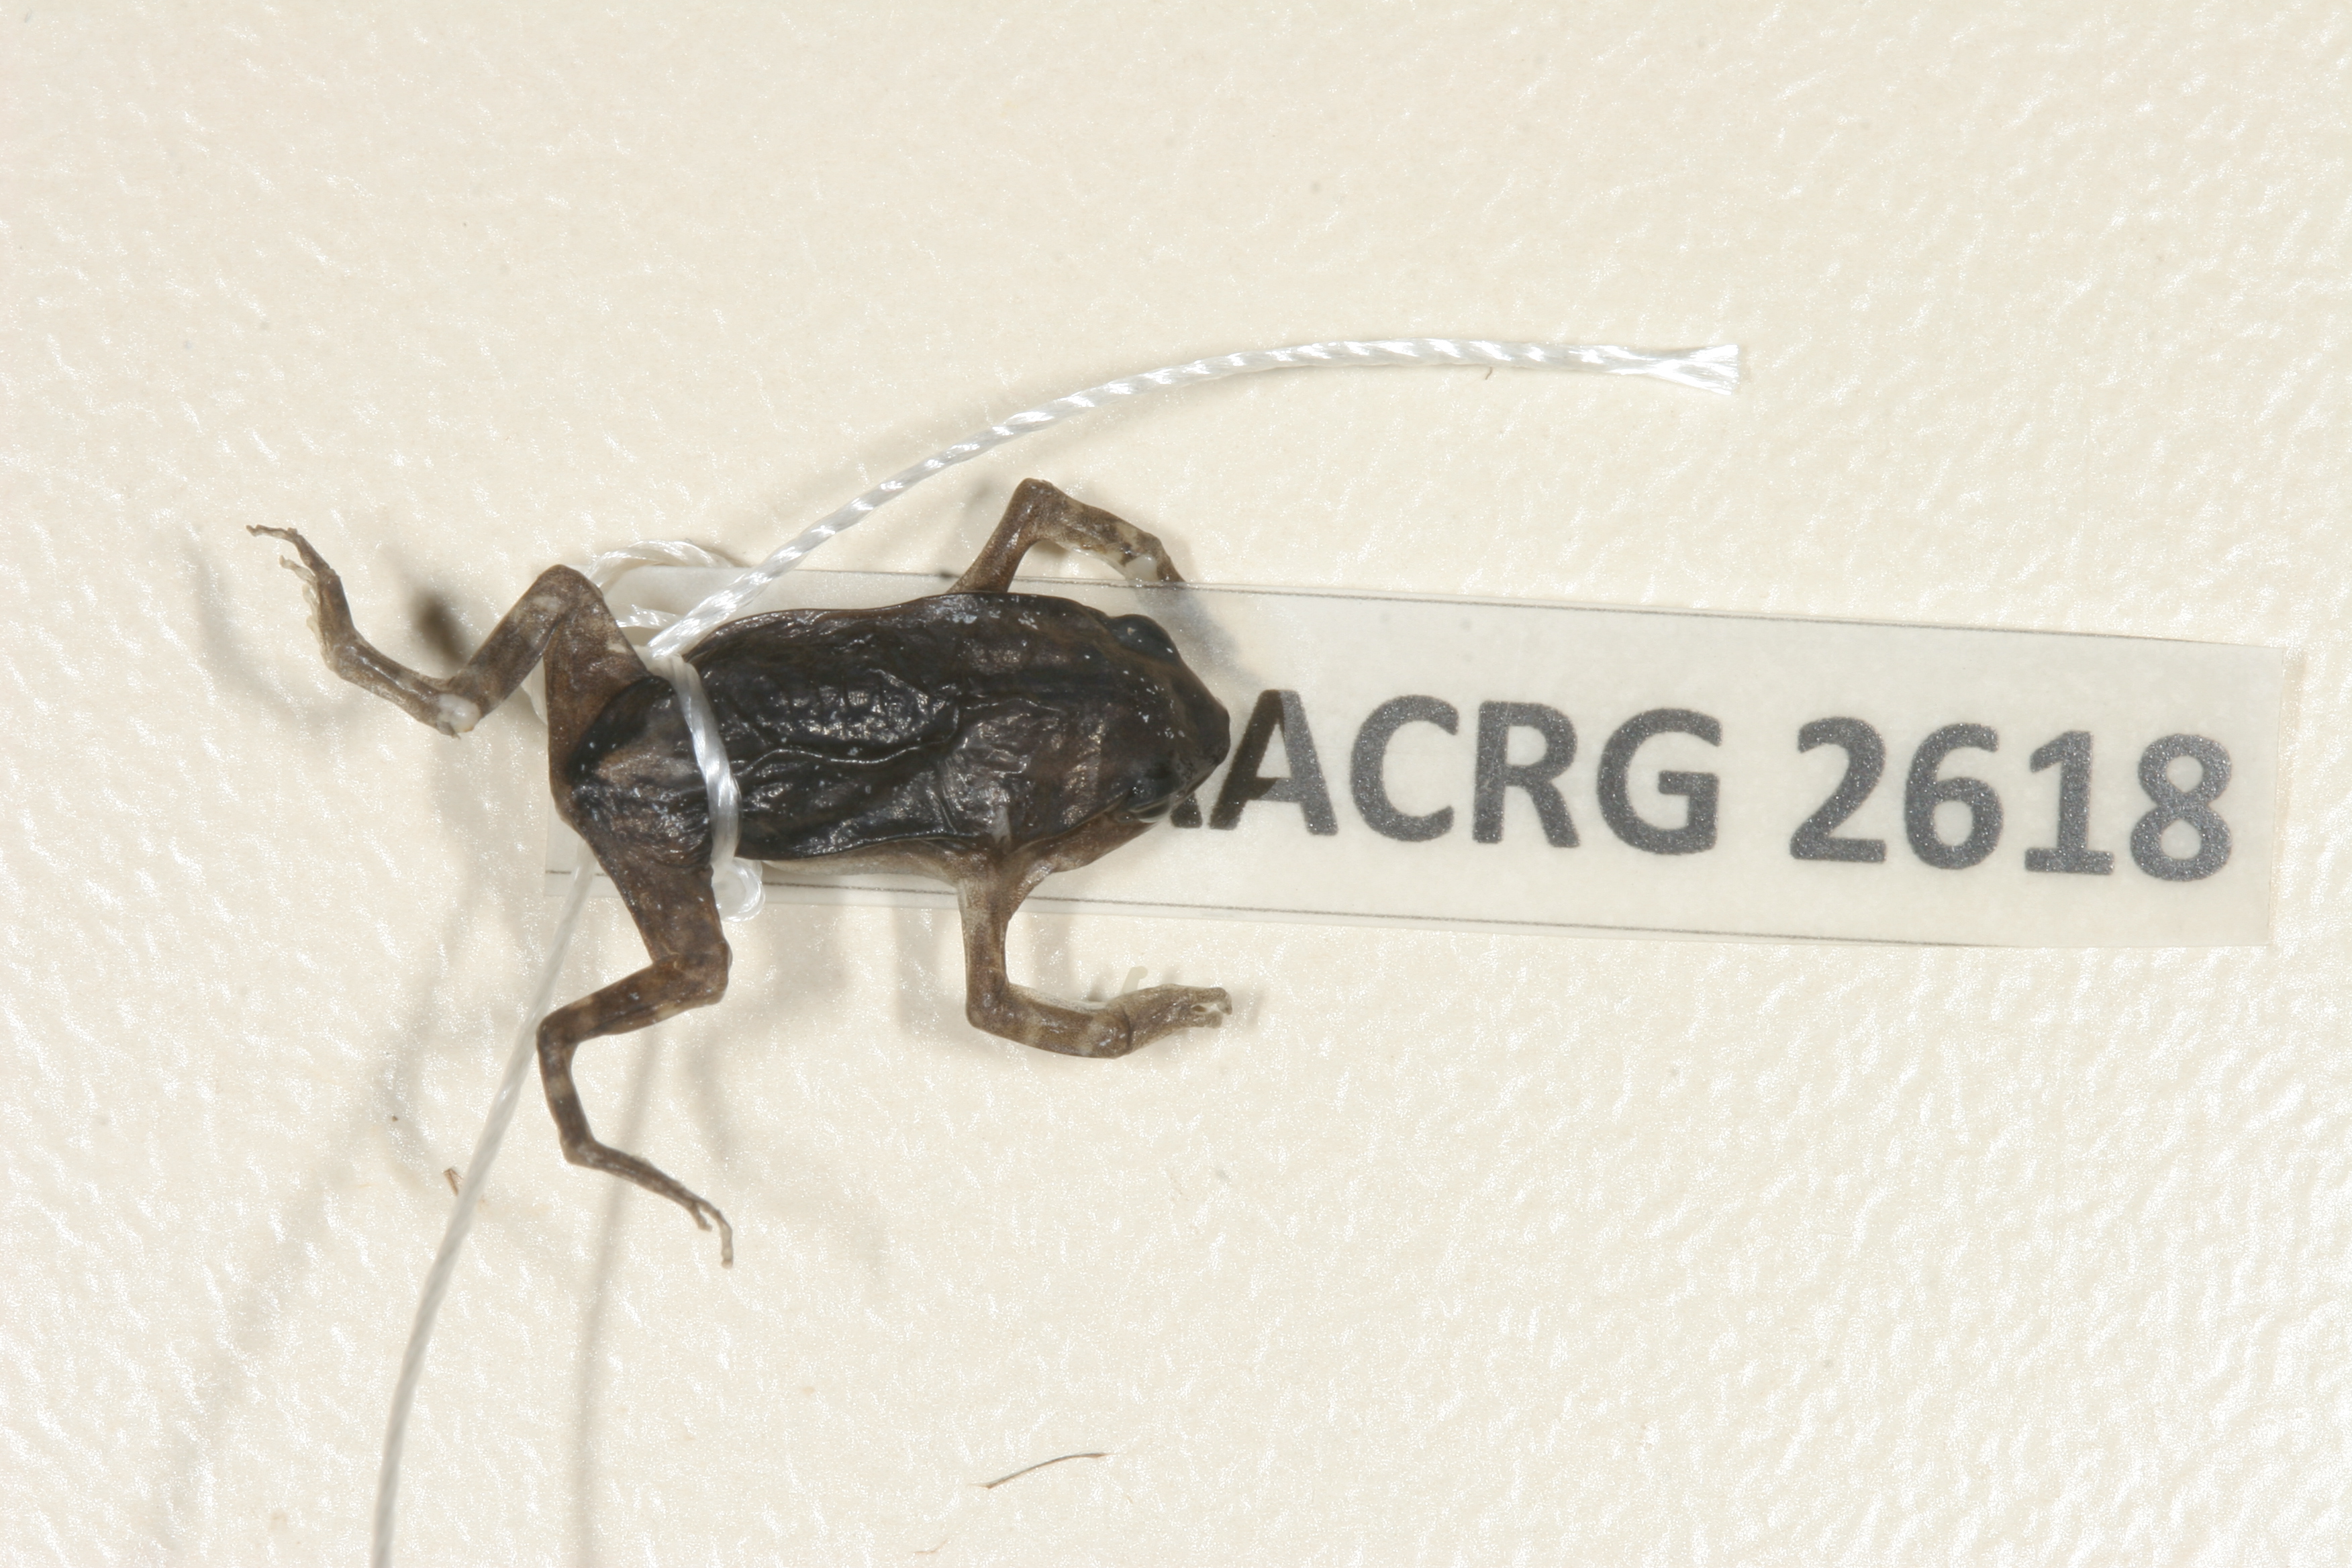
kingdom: Animalia
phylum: Chordata
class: Amphibia
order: Anura
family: Microhylidae
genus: Phrynomantis
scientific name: Phrynomantis bifasciatus
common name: Banded rubber frog
